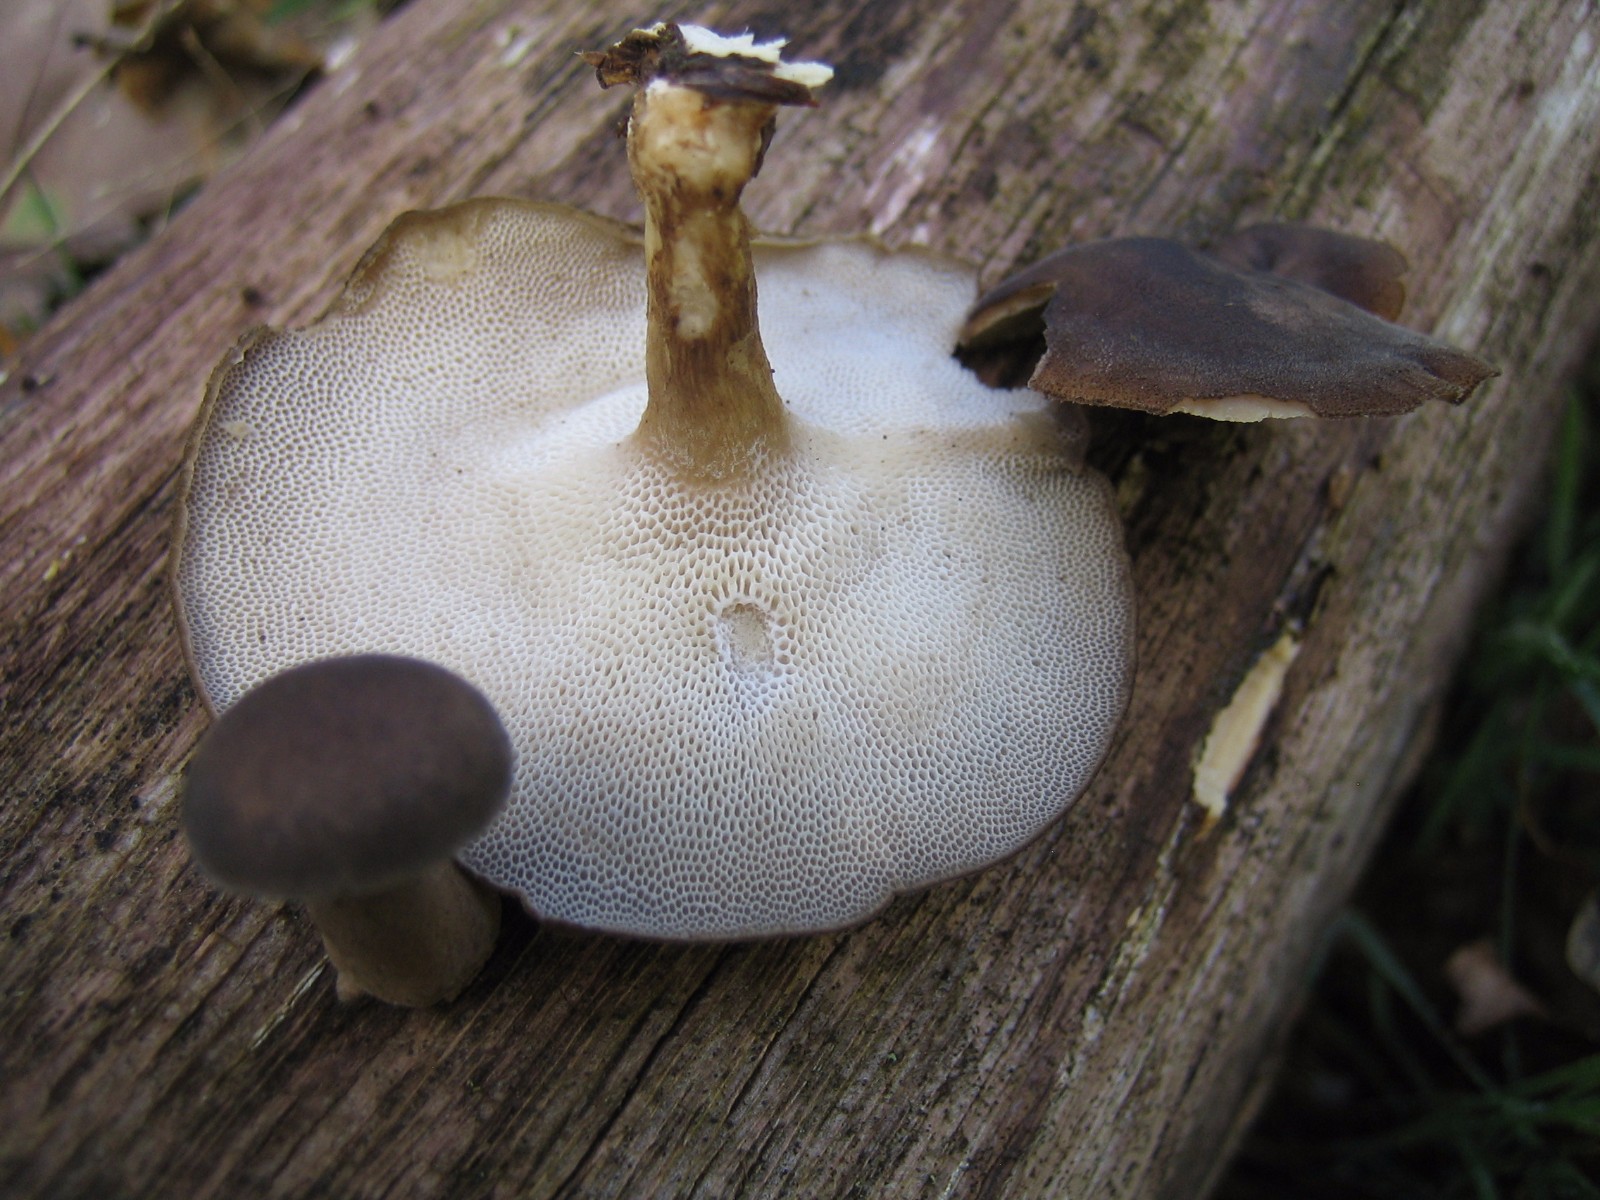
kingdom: Fungi
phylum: Basidiomycota
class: Agaricomycetes
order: Polyporales
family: Polyporaceae
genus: Lentinus
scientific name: Lentinus brumalis
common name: vinter-stilkporesvamp
